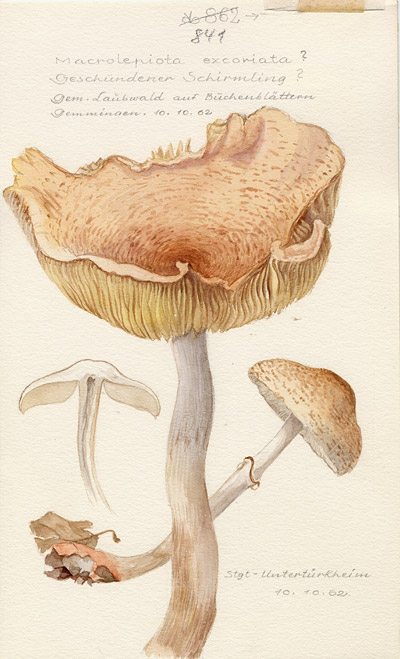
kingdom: Fungi
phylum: Basidiomycota
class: Agaricomycetes
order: Agaricales
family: Agaricaceae
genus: Macrolepiota
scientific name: Macrolepiota excoriata
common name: Frayed parasol
